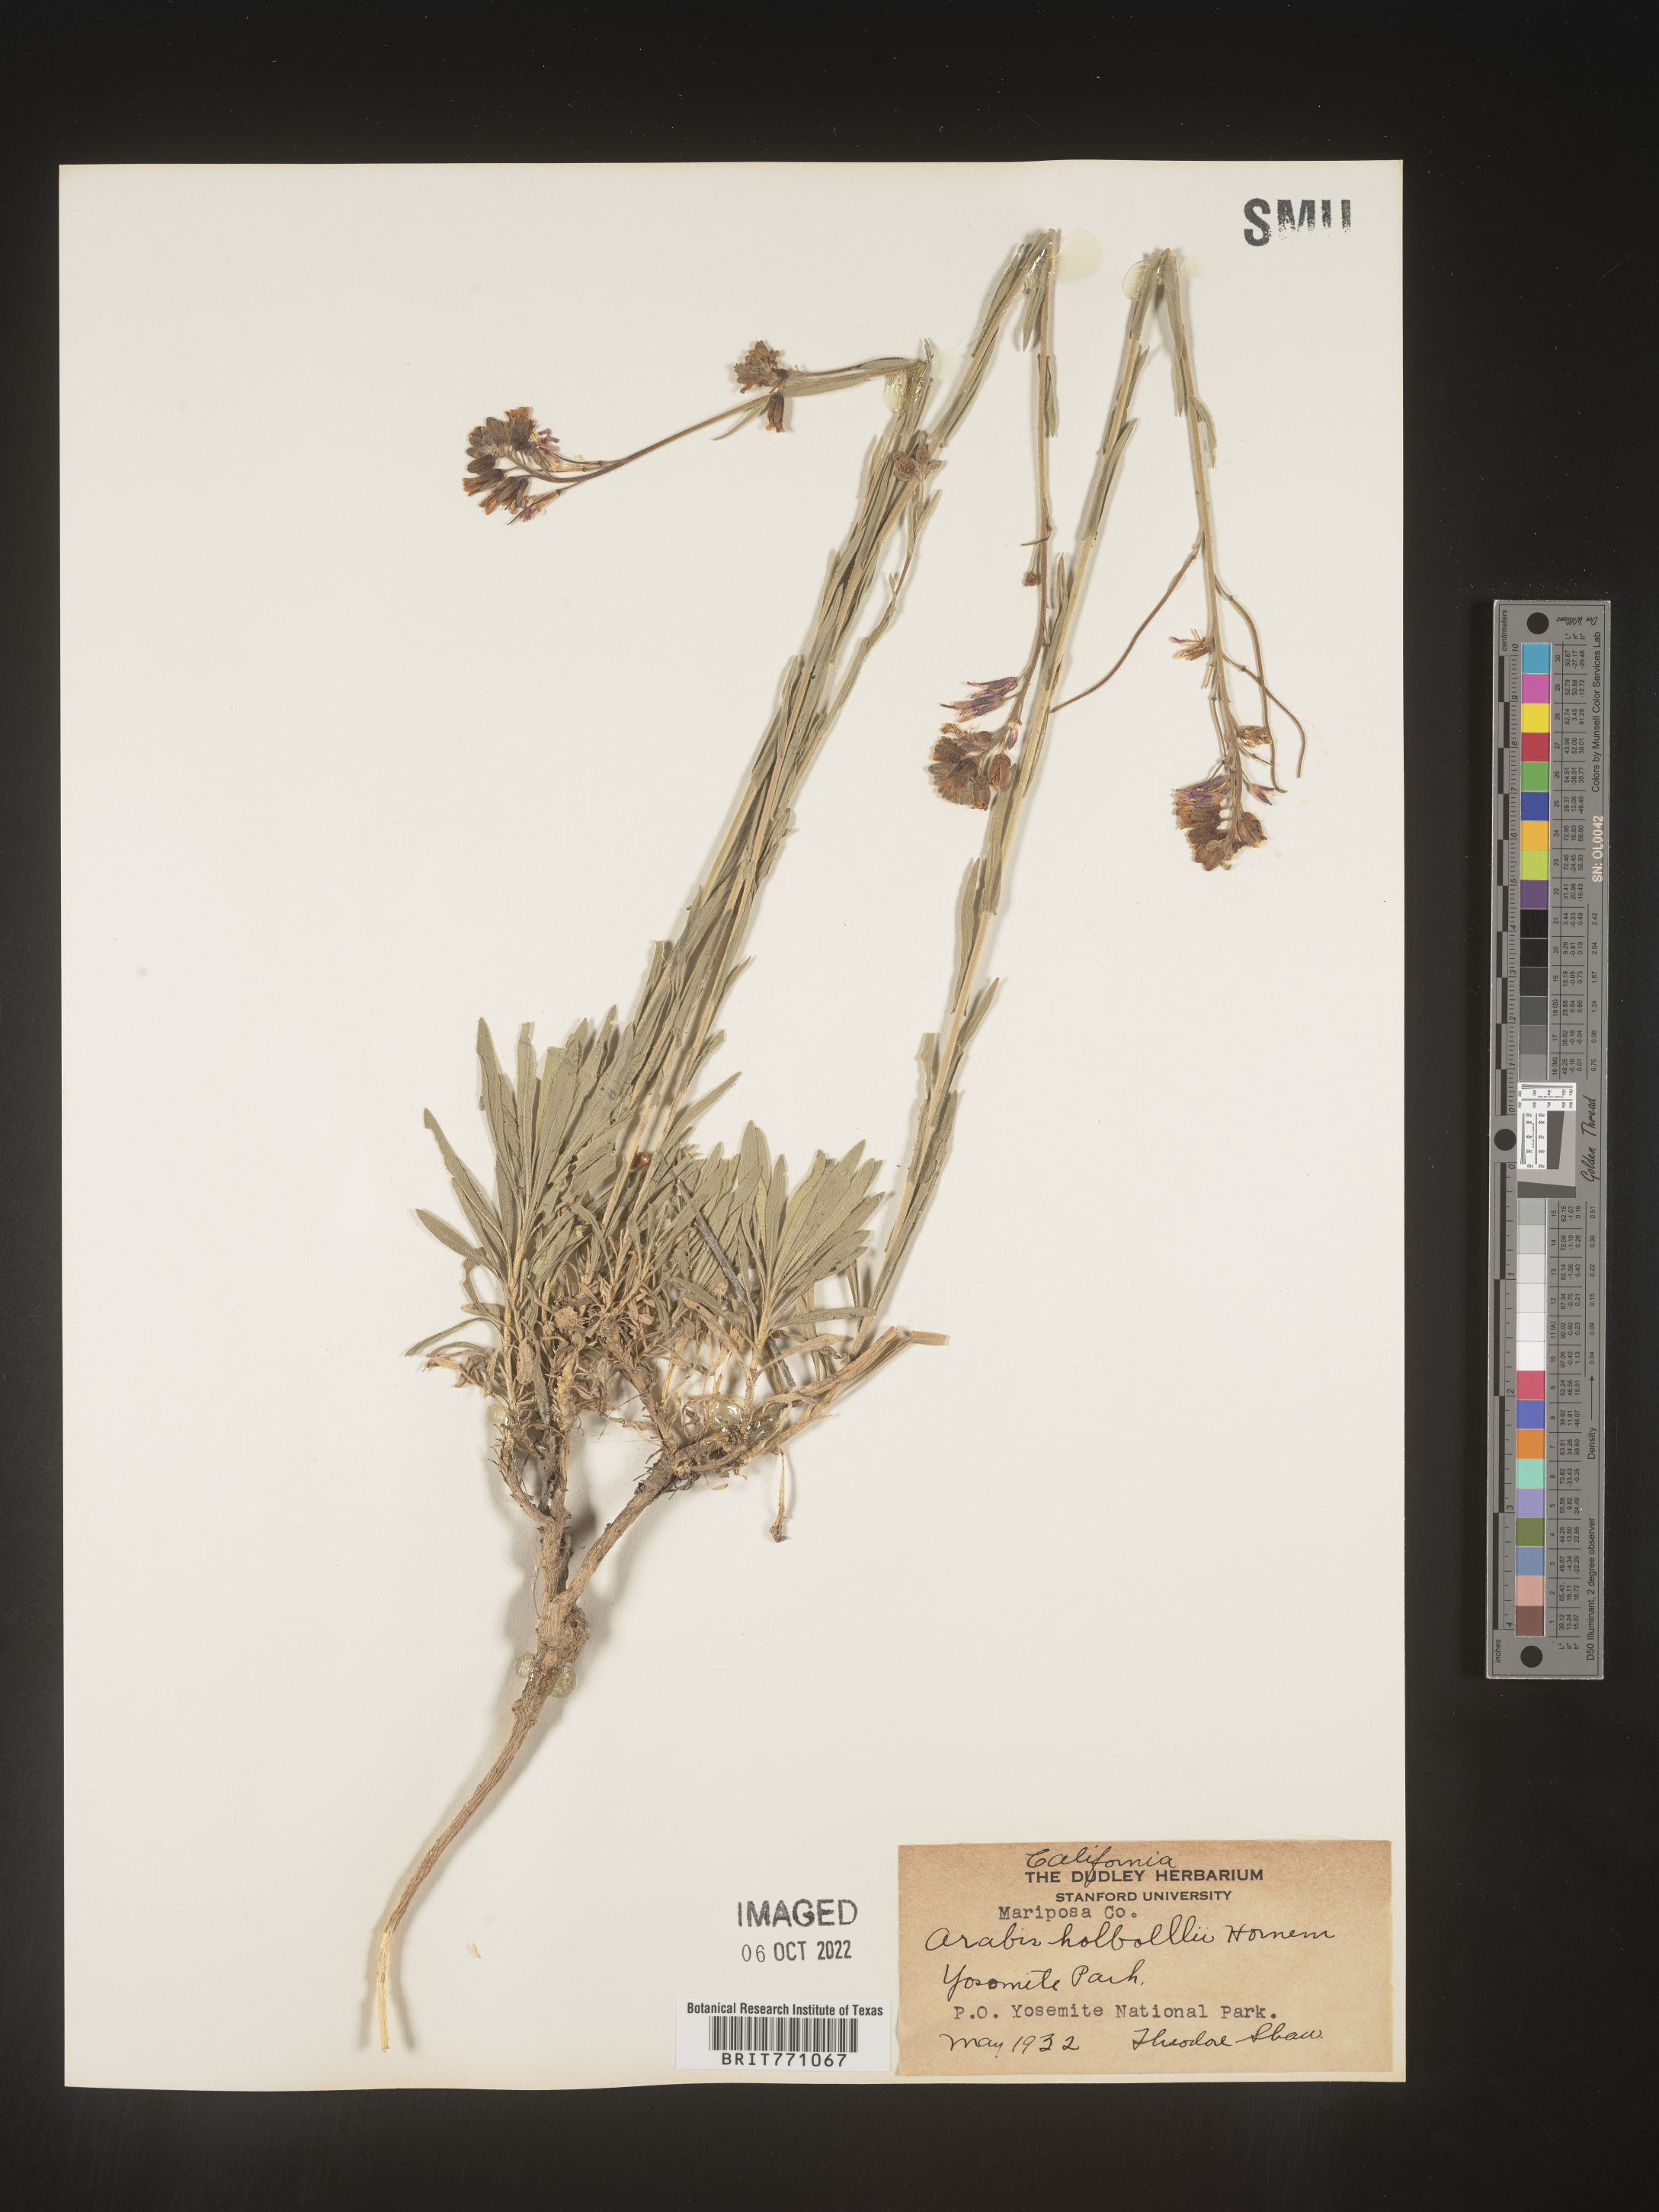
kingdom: Plantae
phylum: Tracheophyta
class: Magnoliopsida
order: Brassicales
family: Brassicaceae
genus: Boechera
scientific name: Boechera holboellii
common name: Holboell's rockcress
